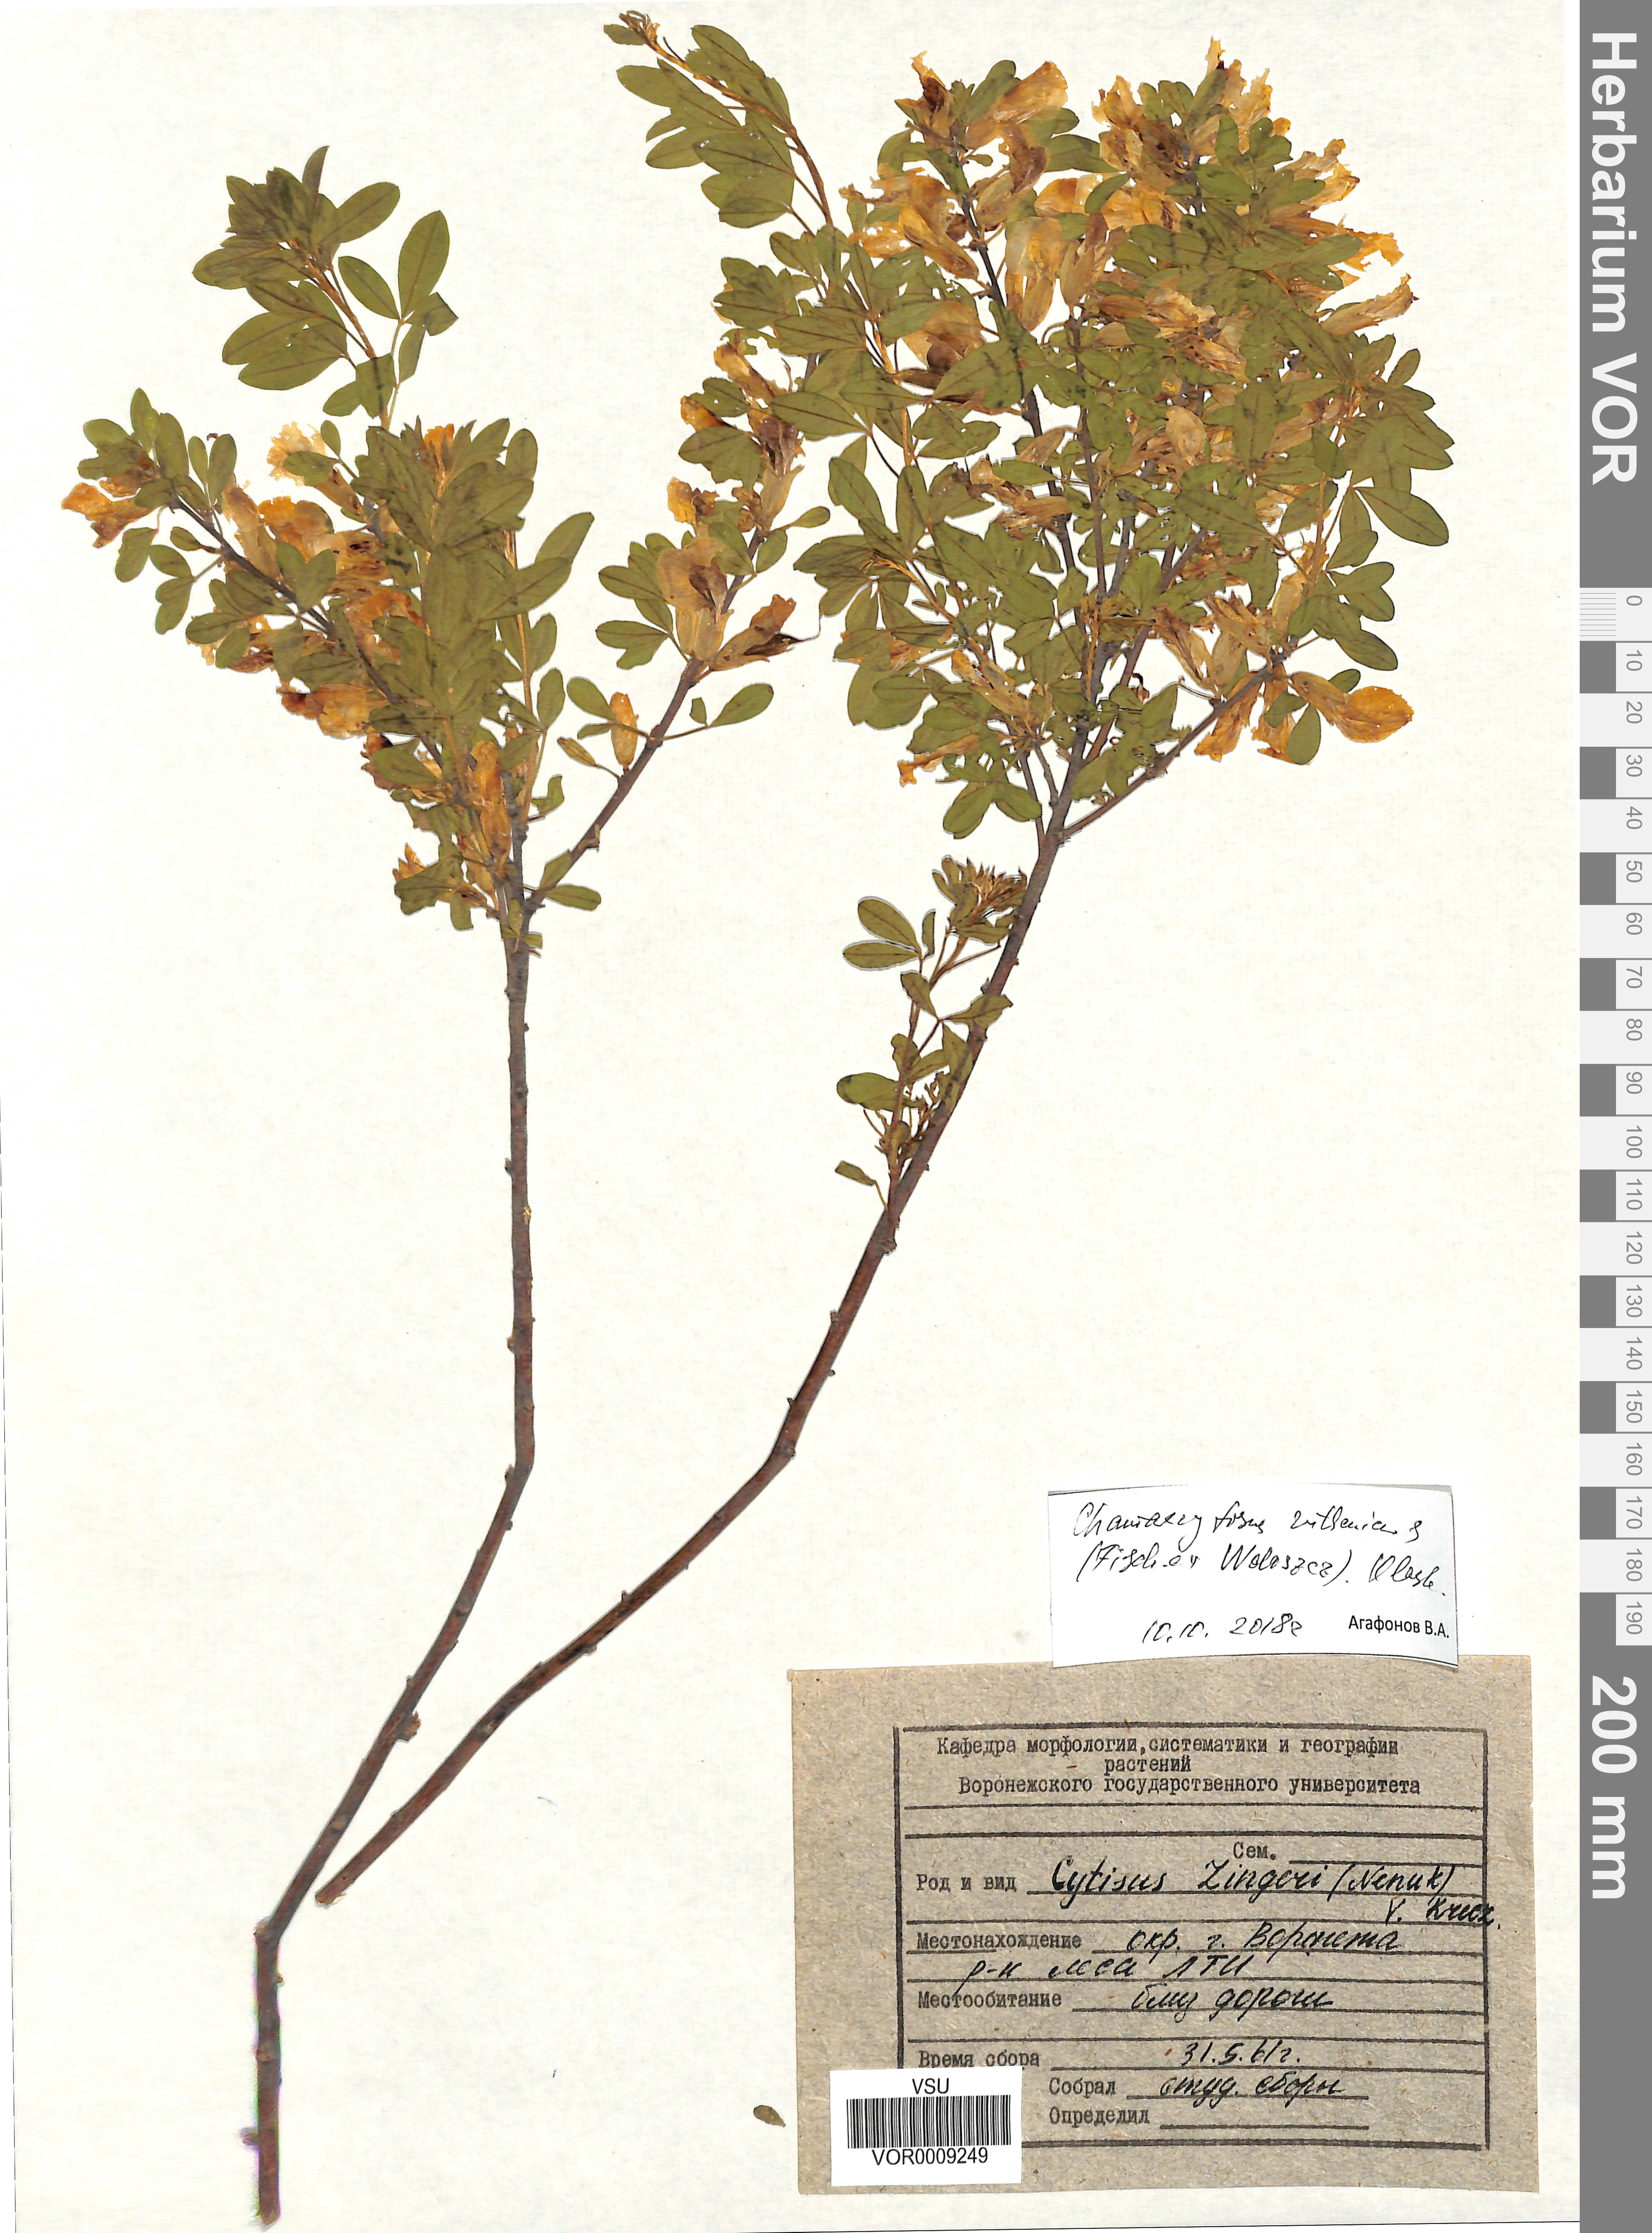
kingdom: Plantae
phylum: Tracheophyta
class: Magnoliopsida
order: Fabales
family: Fabaceae
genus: Chamaecytisus
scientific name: Chamaecytisus ruthenicus
